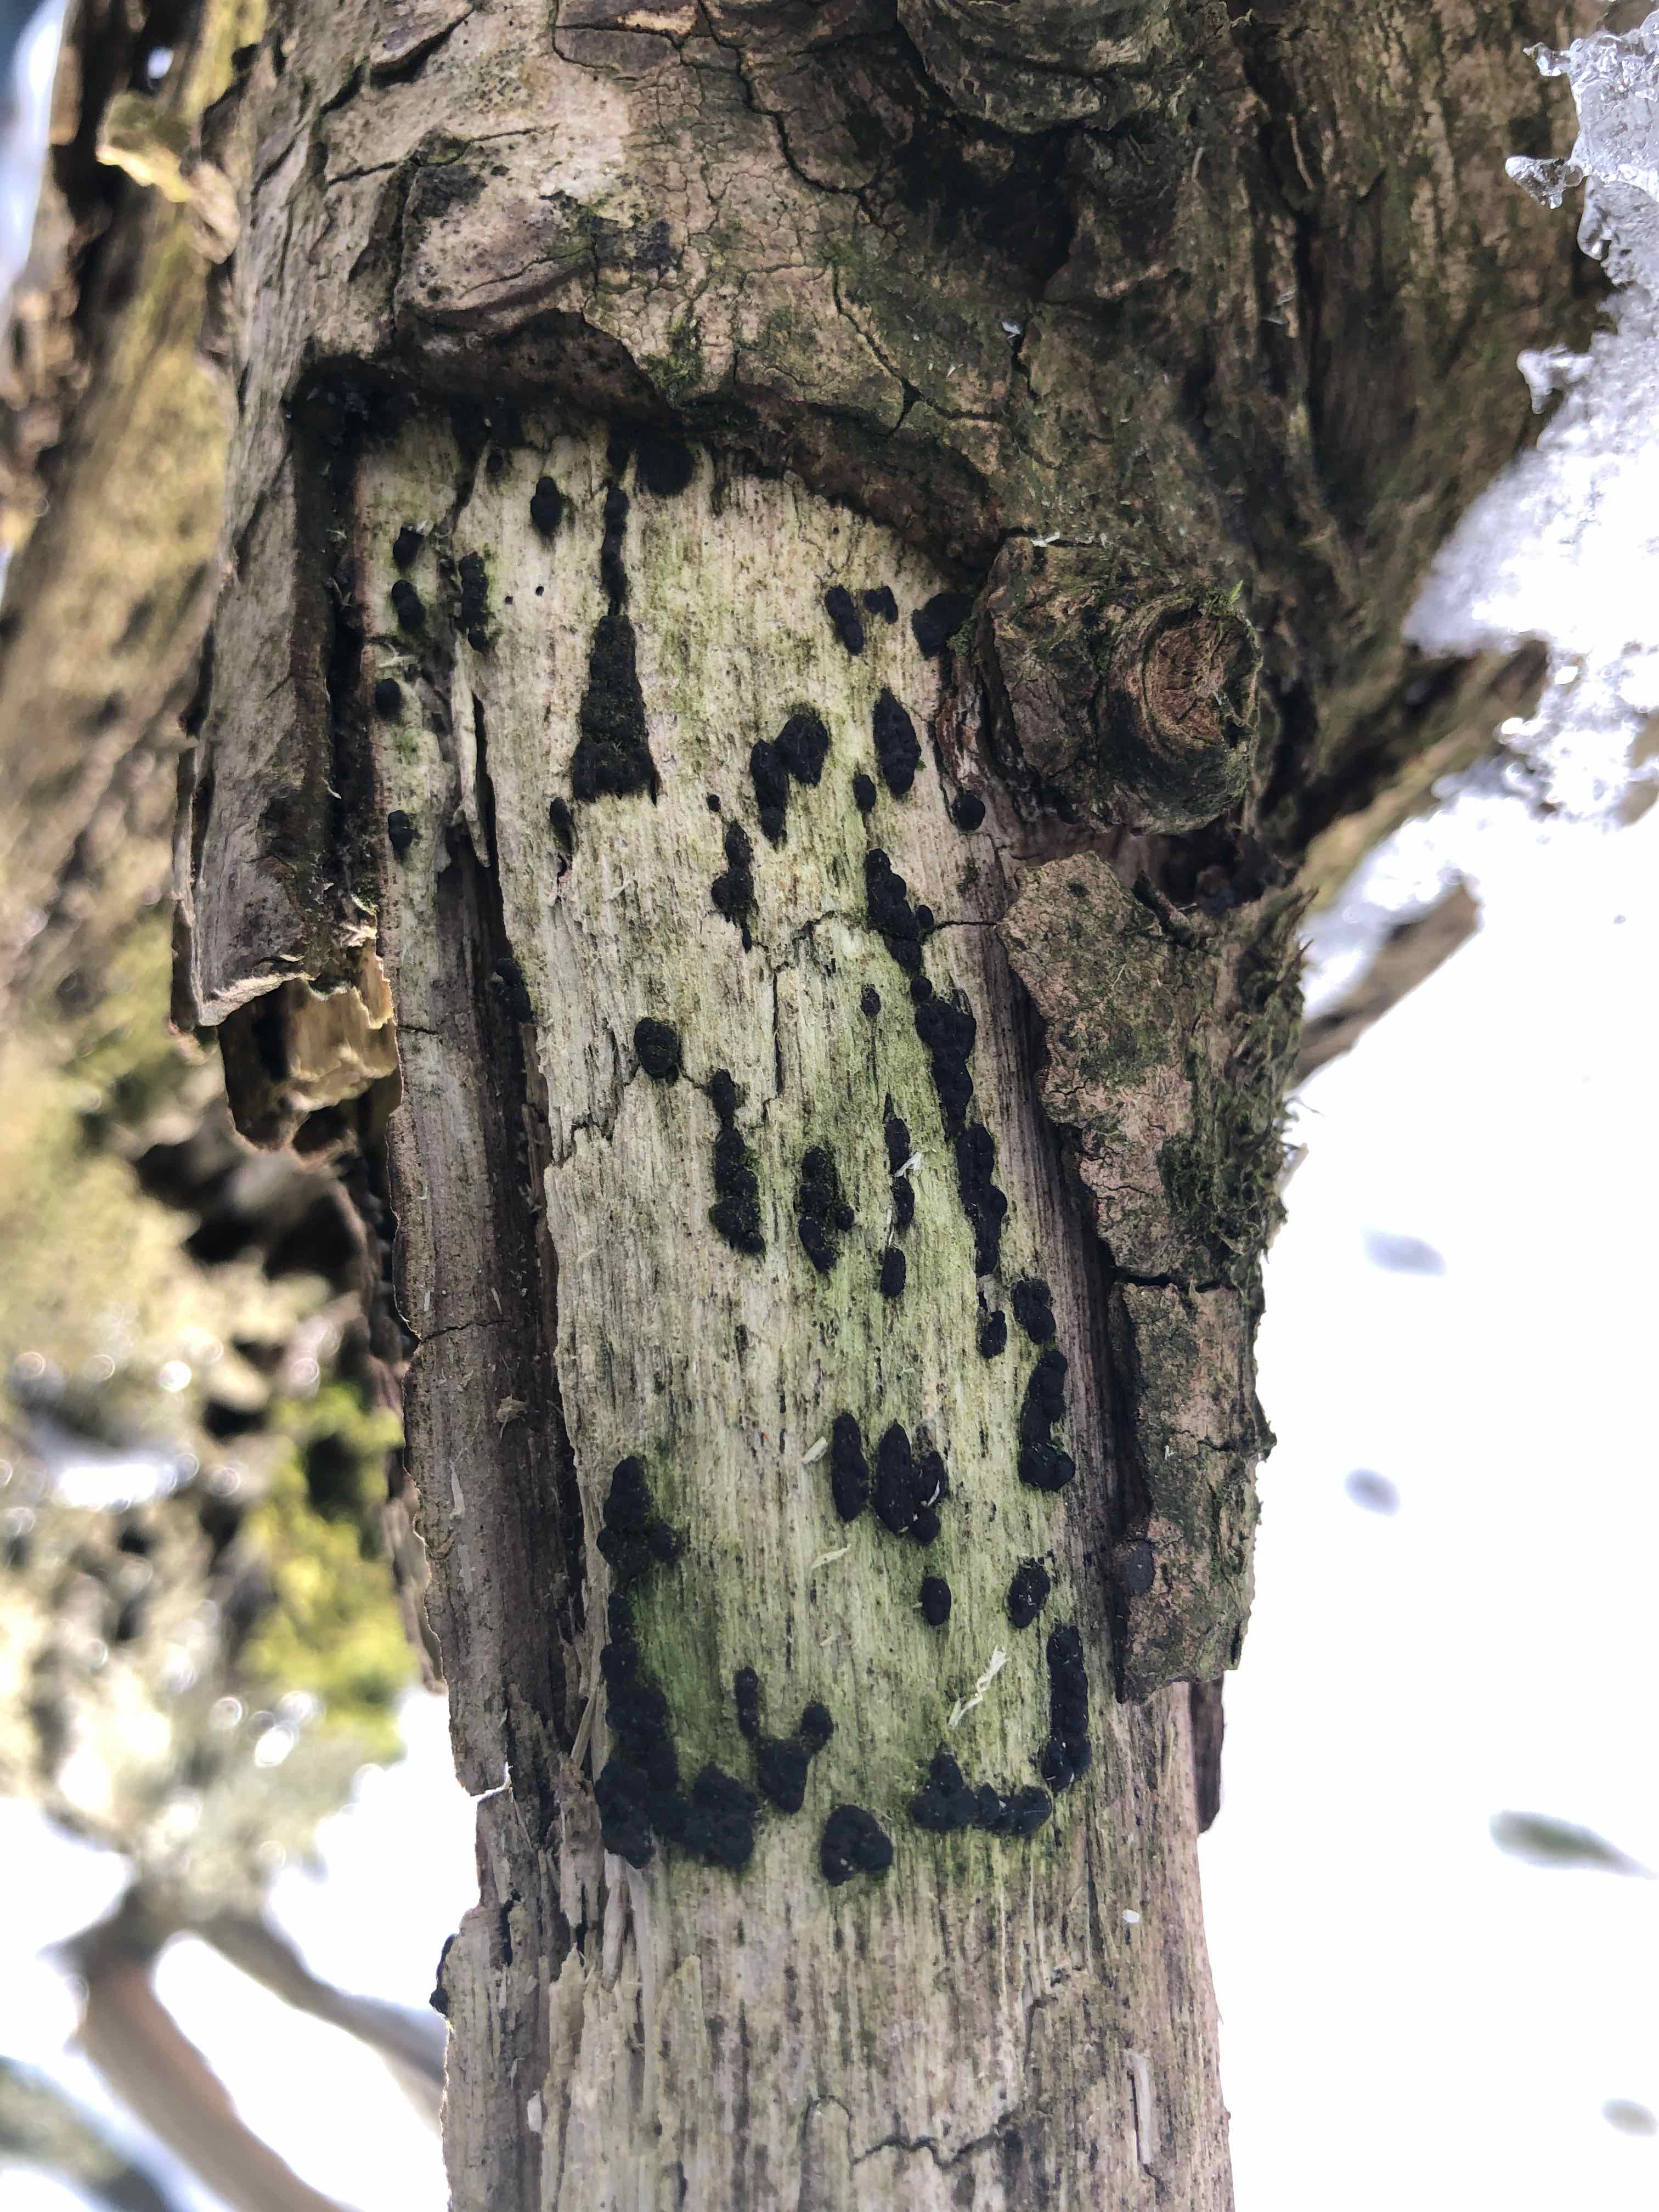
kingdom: Fungi
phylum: Ascomycota
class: Sordariomycetes
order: Xylariales
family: Xylariaceae
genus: Nemania
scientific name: Nemania confluens
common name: indsænket kuldyne
